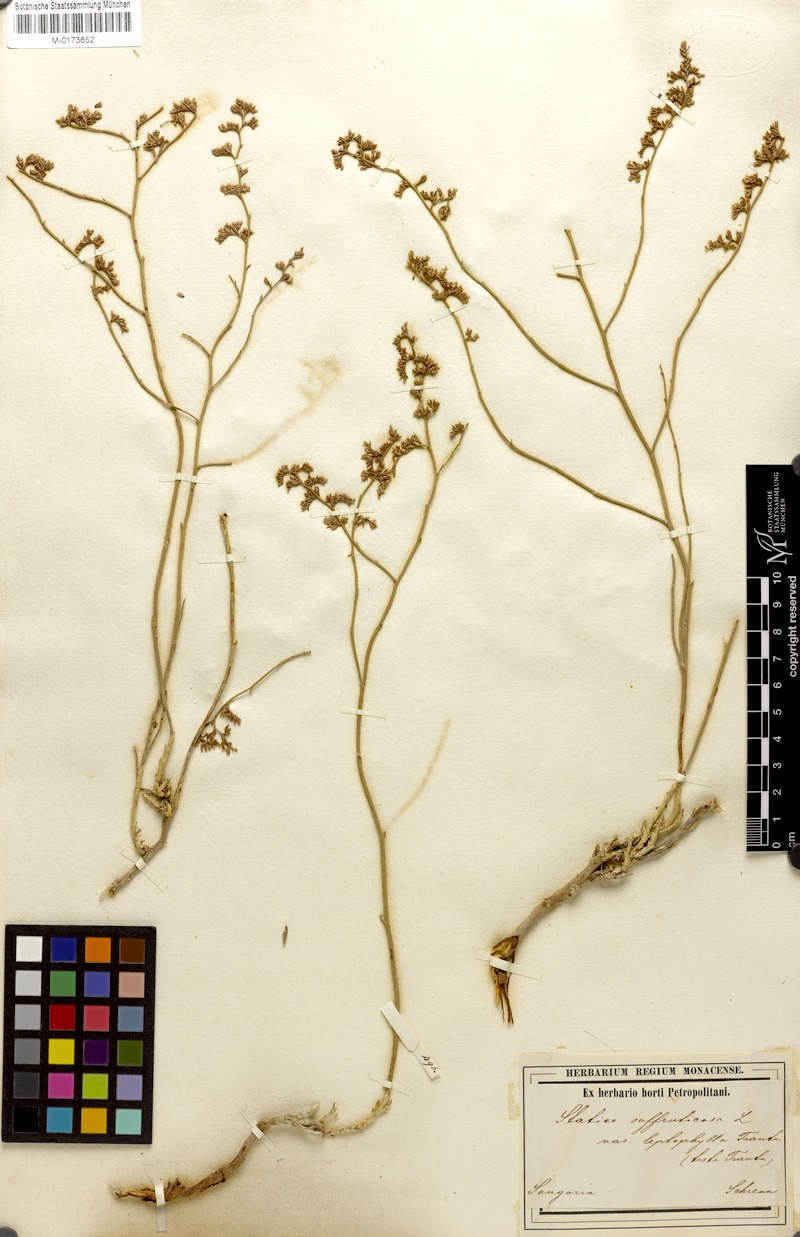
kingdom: Plantae
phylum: Tracheophyta
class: Magnoliopsida
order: Caryophyllales
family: Plumbaginaceae
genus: Limonium
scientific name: Limonium suffruticosum
